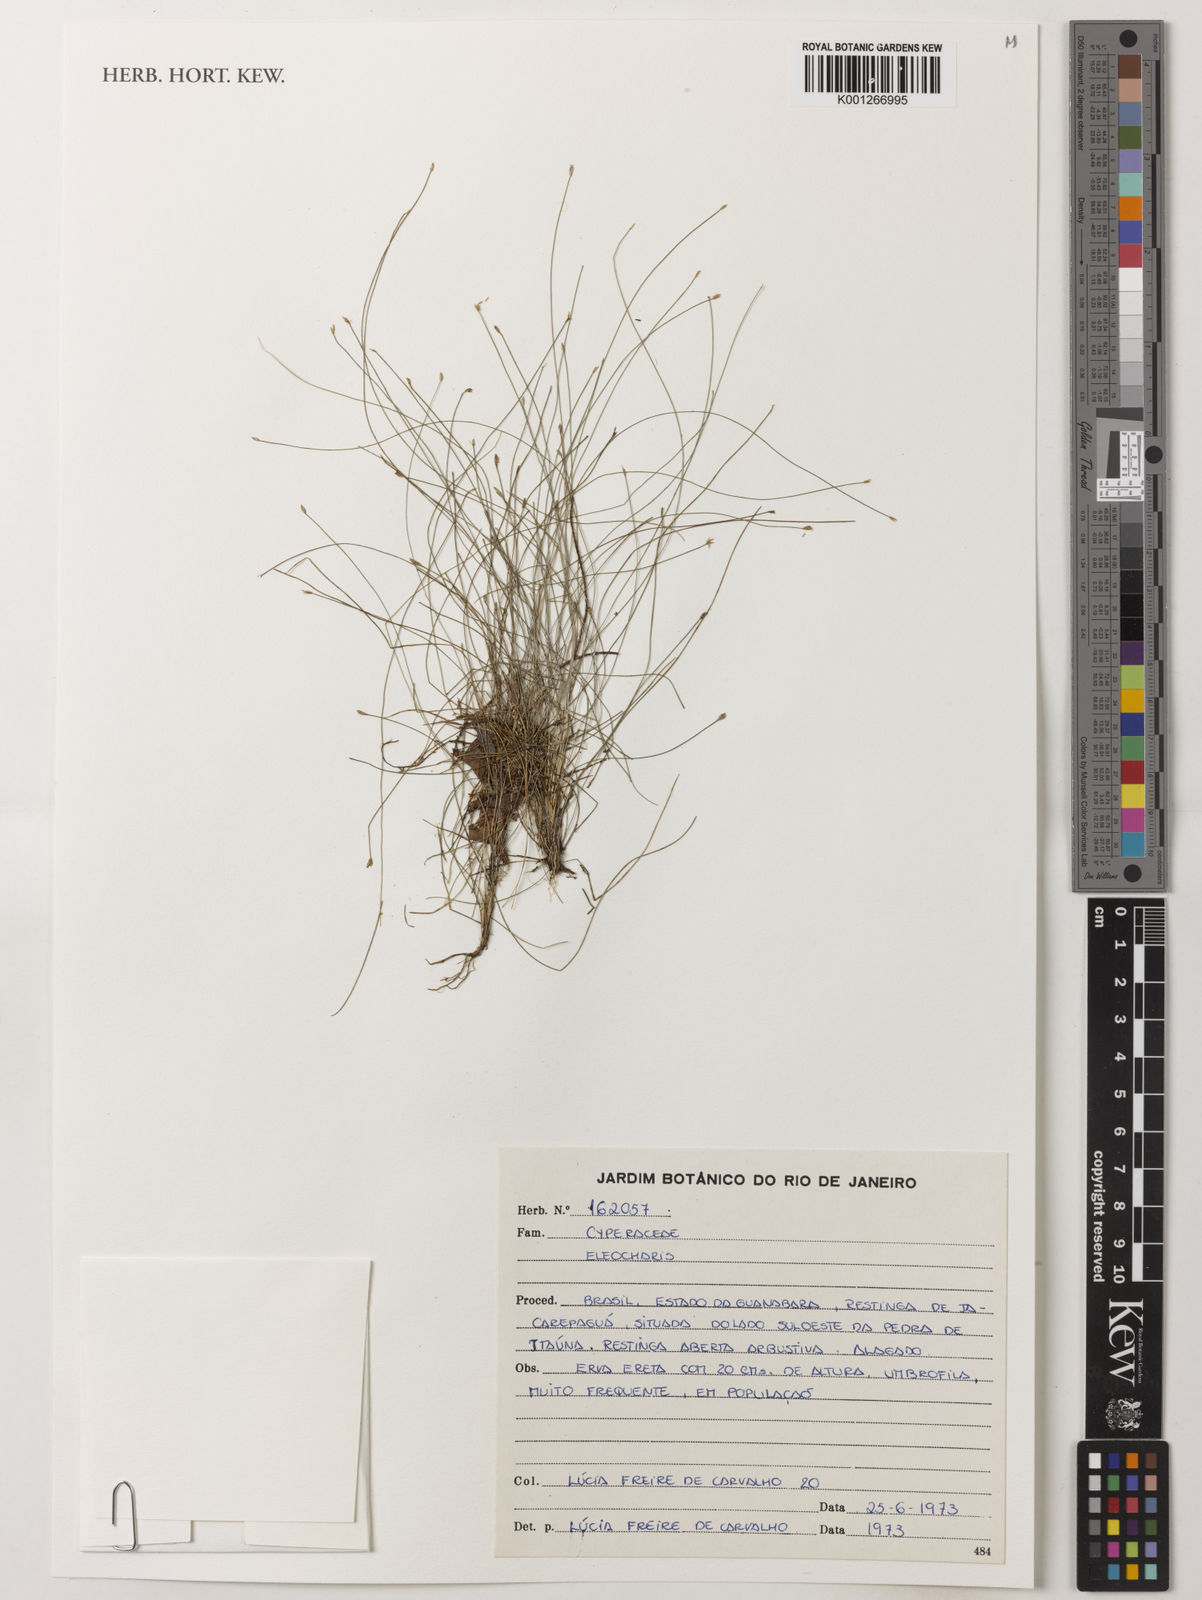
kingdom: Plantae
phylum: Tracheophyta
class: Liliopsida
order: Poales
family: Cyperaceae
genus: Eleocharis
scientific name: Eleocharis
